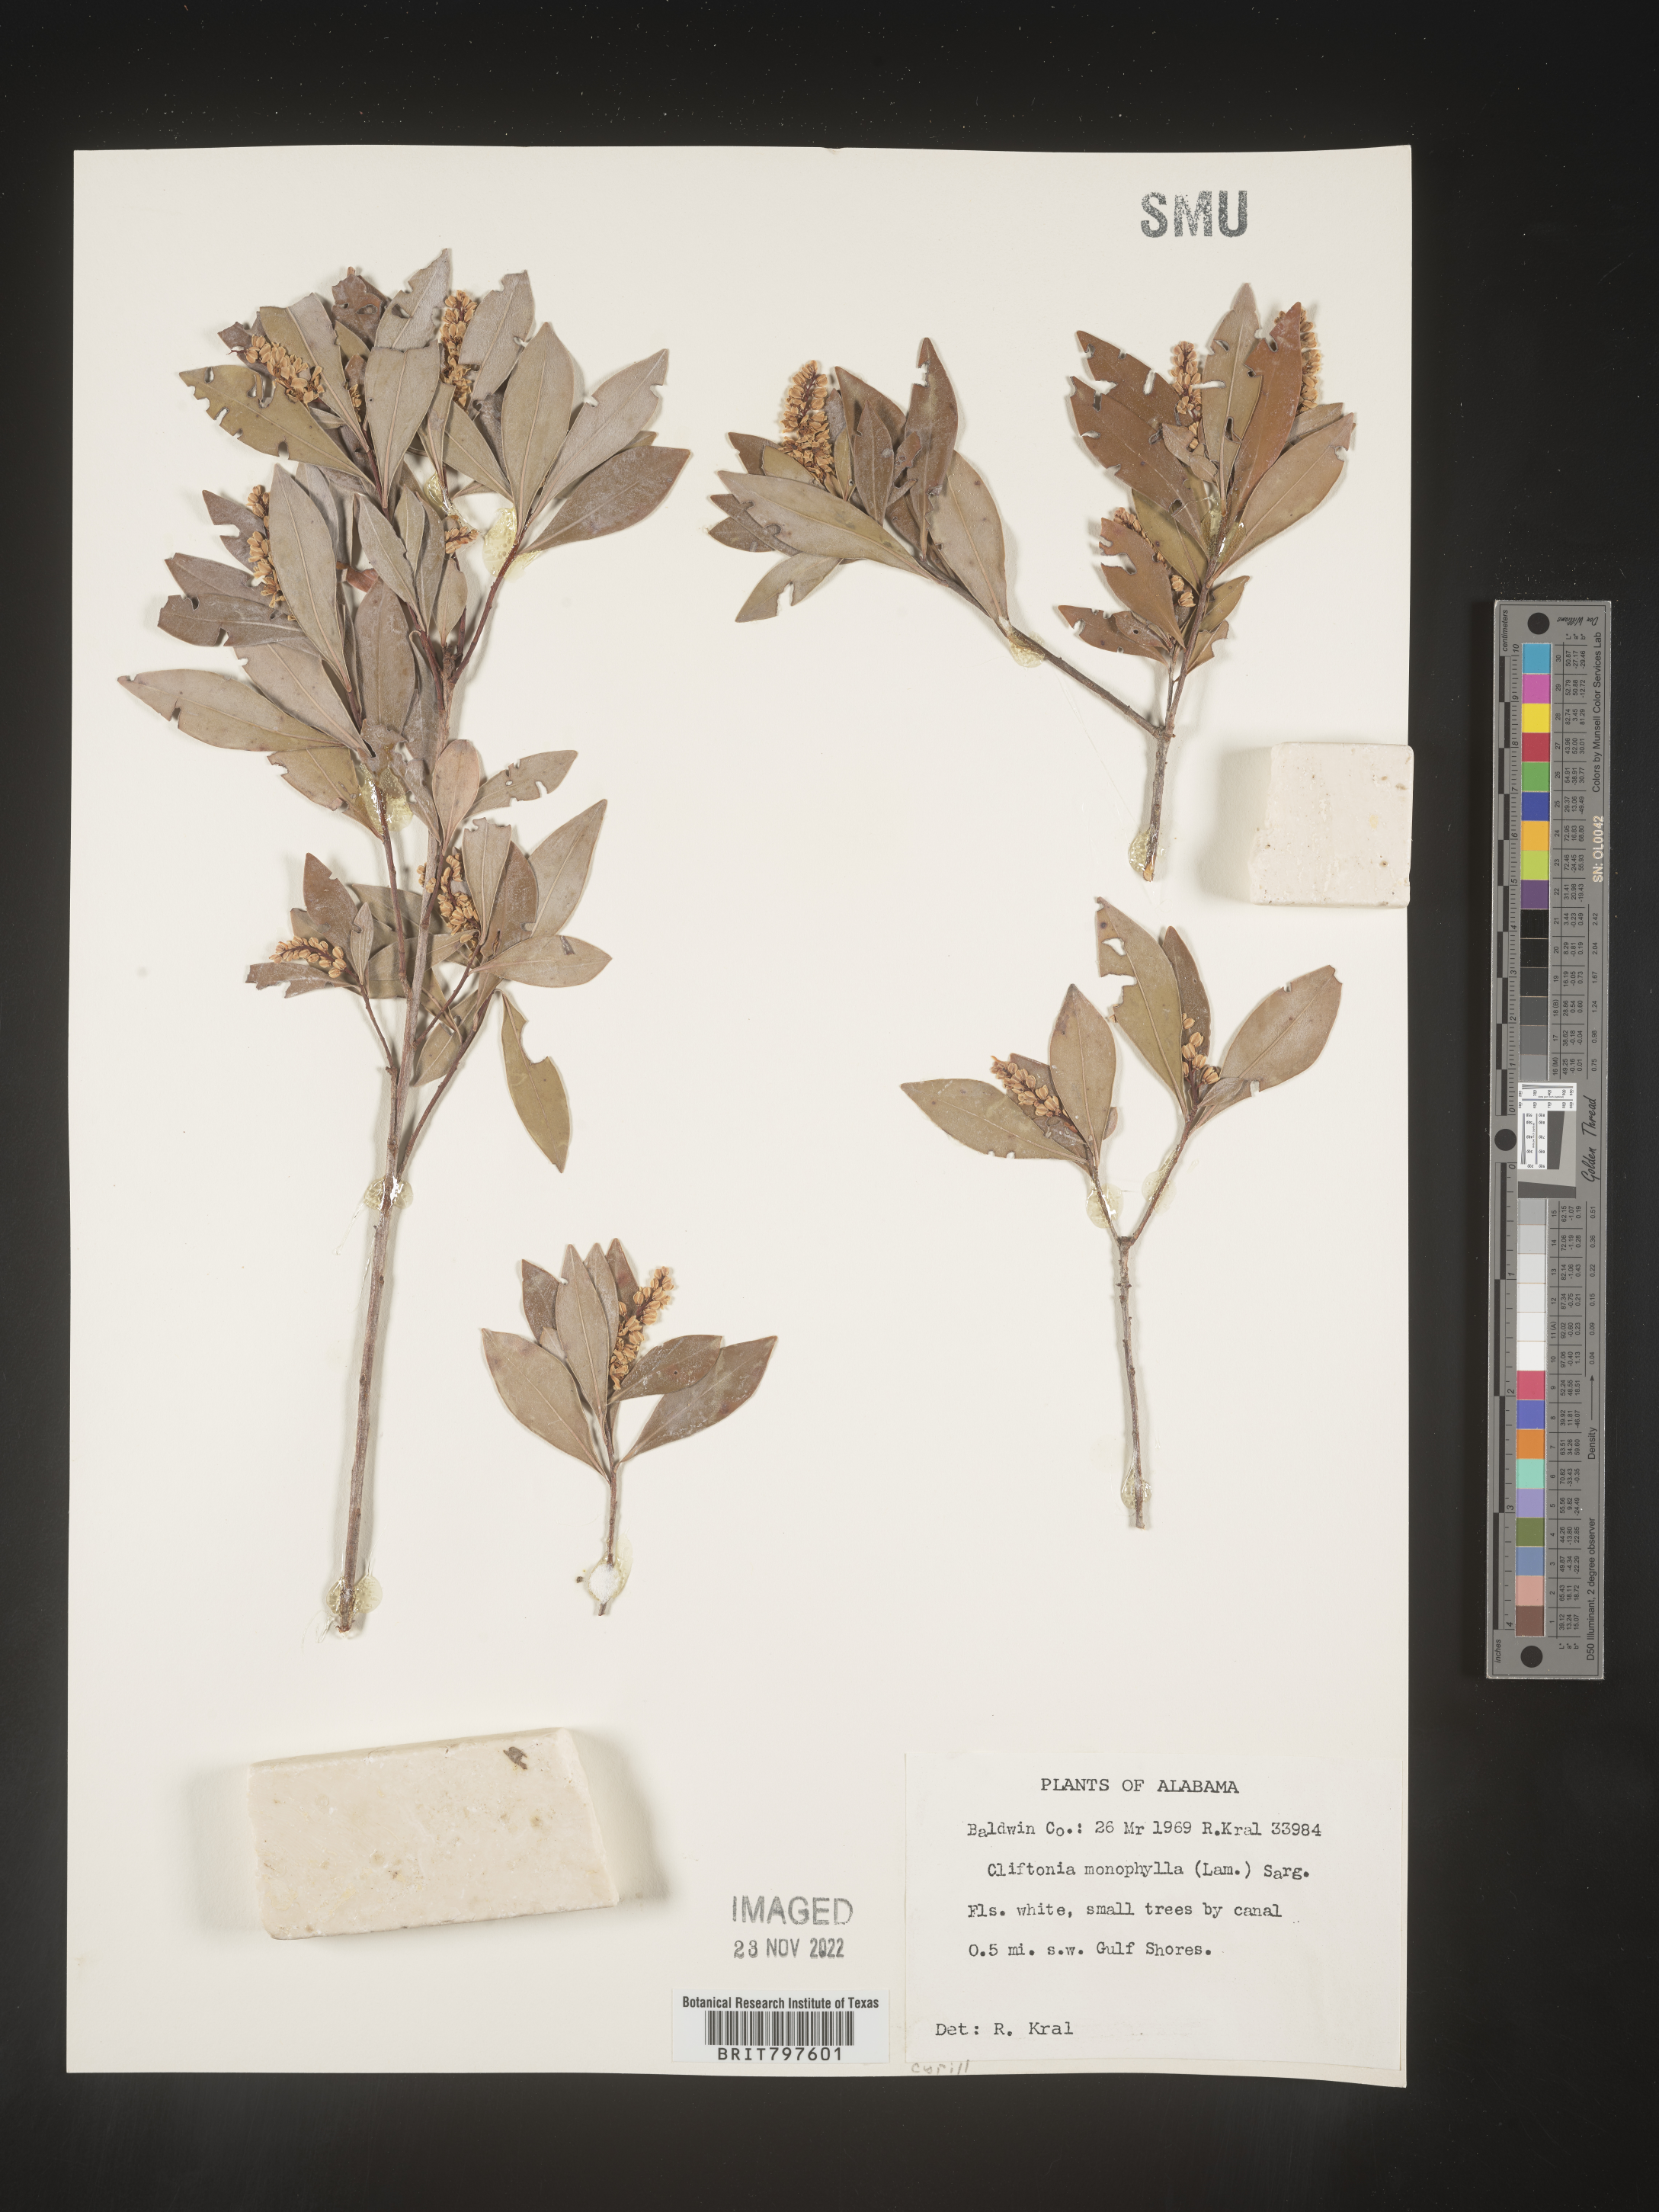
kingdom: Plantae
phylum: Tracheophyta
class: Magnoliopsida
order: Ericales
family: Cyrillaceae
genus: Cliftonia
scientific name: Cliftonia monophylla
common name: Titi
